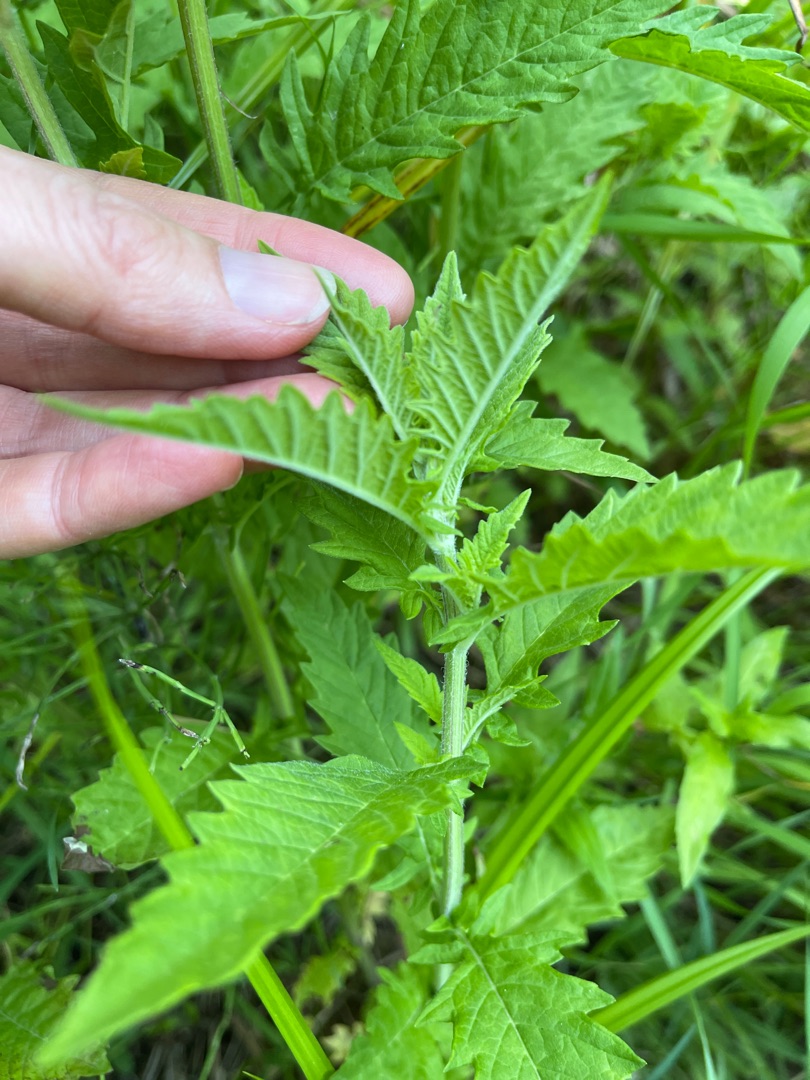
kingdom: Plantae
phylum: Tracheophyta
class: Magnoliopsida
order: Lamiales
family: Lamiaceae
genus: Lycopus
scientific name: Lycopus europaeus
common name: Sværtevæld
